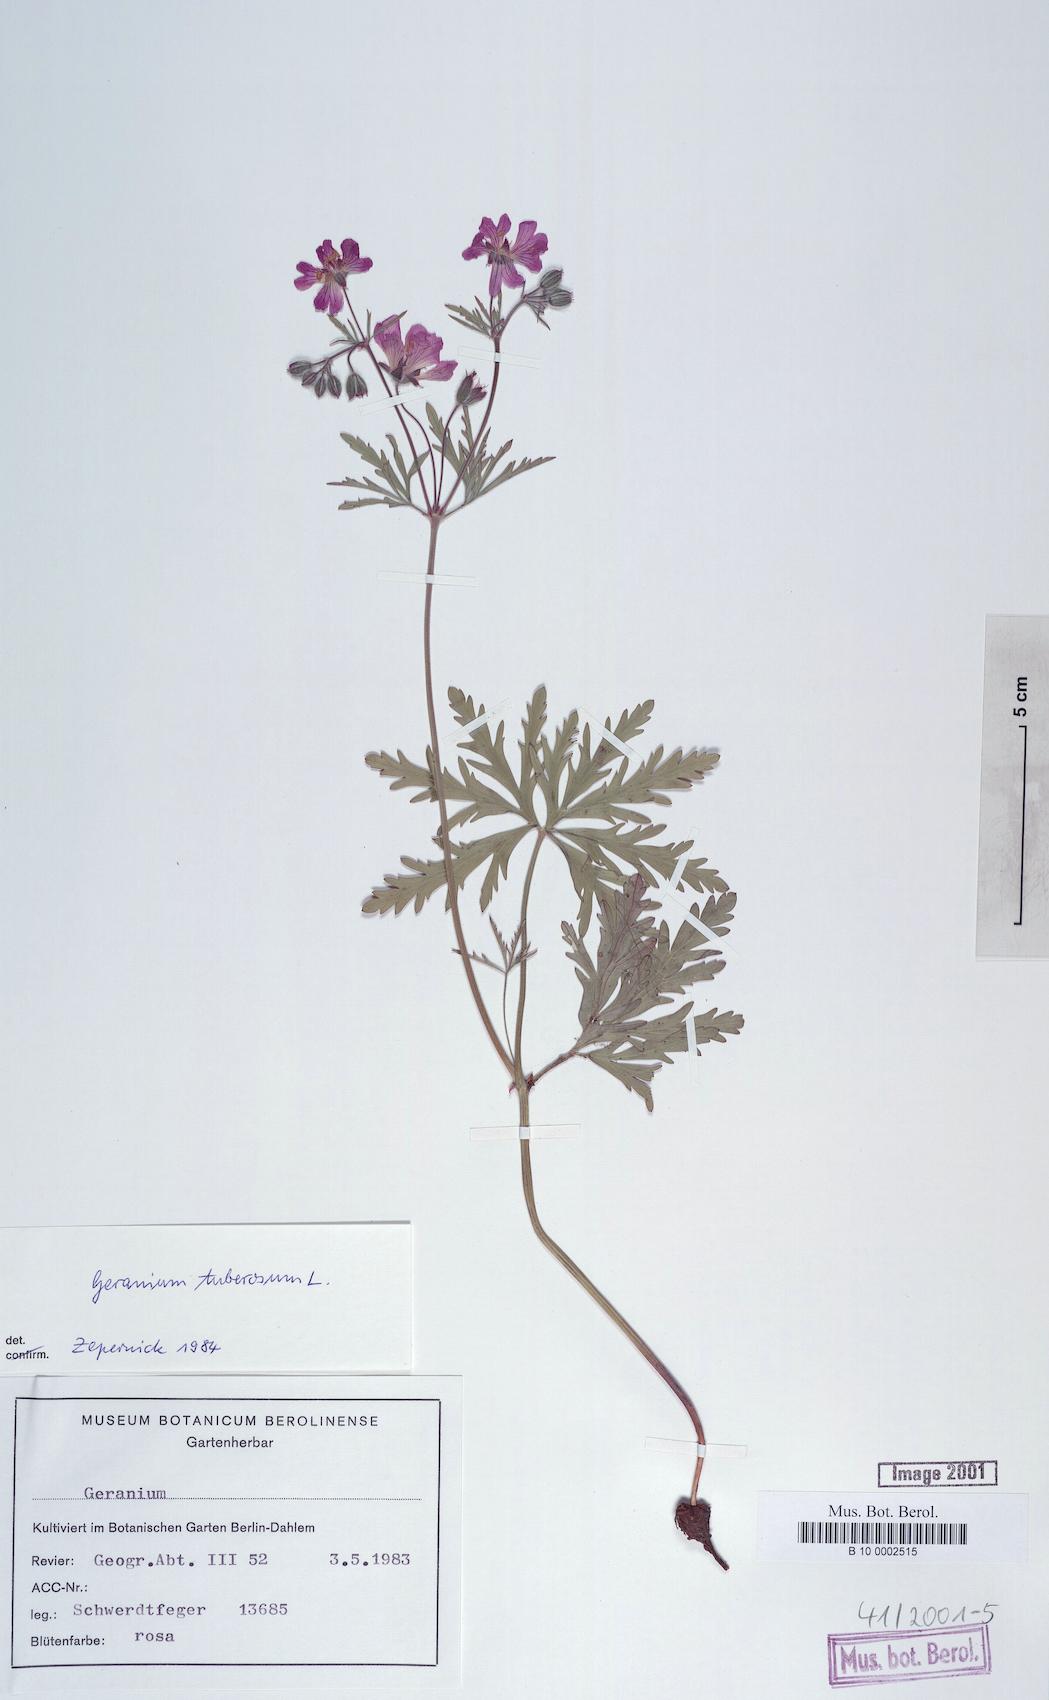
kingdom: Plantae
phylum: Tracheophyta
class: Magnoliopsida
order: Geraniales
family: Geraniaceae
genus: Geranium
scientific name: Geranium tuberosum
